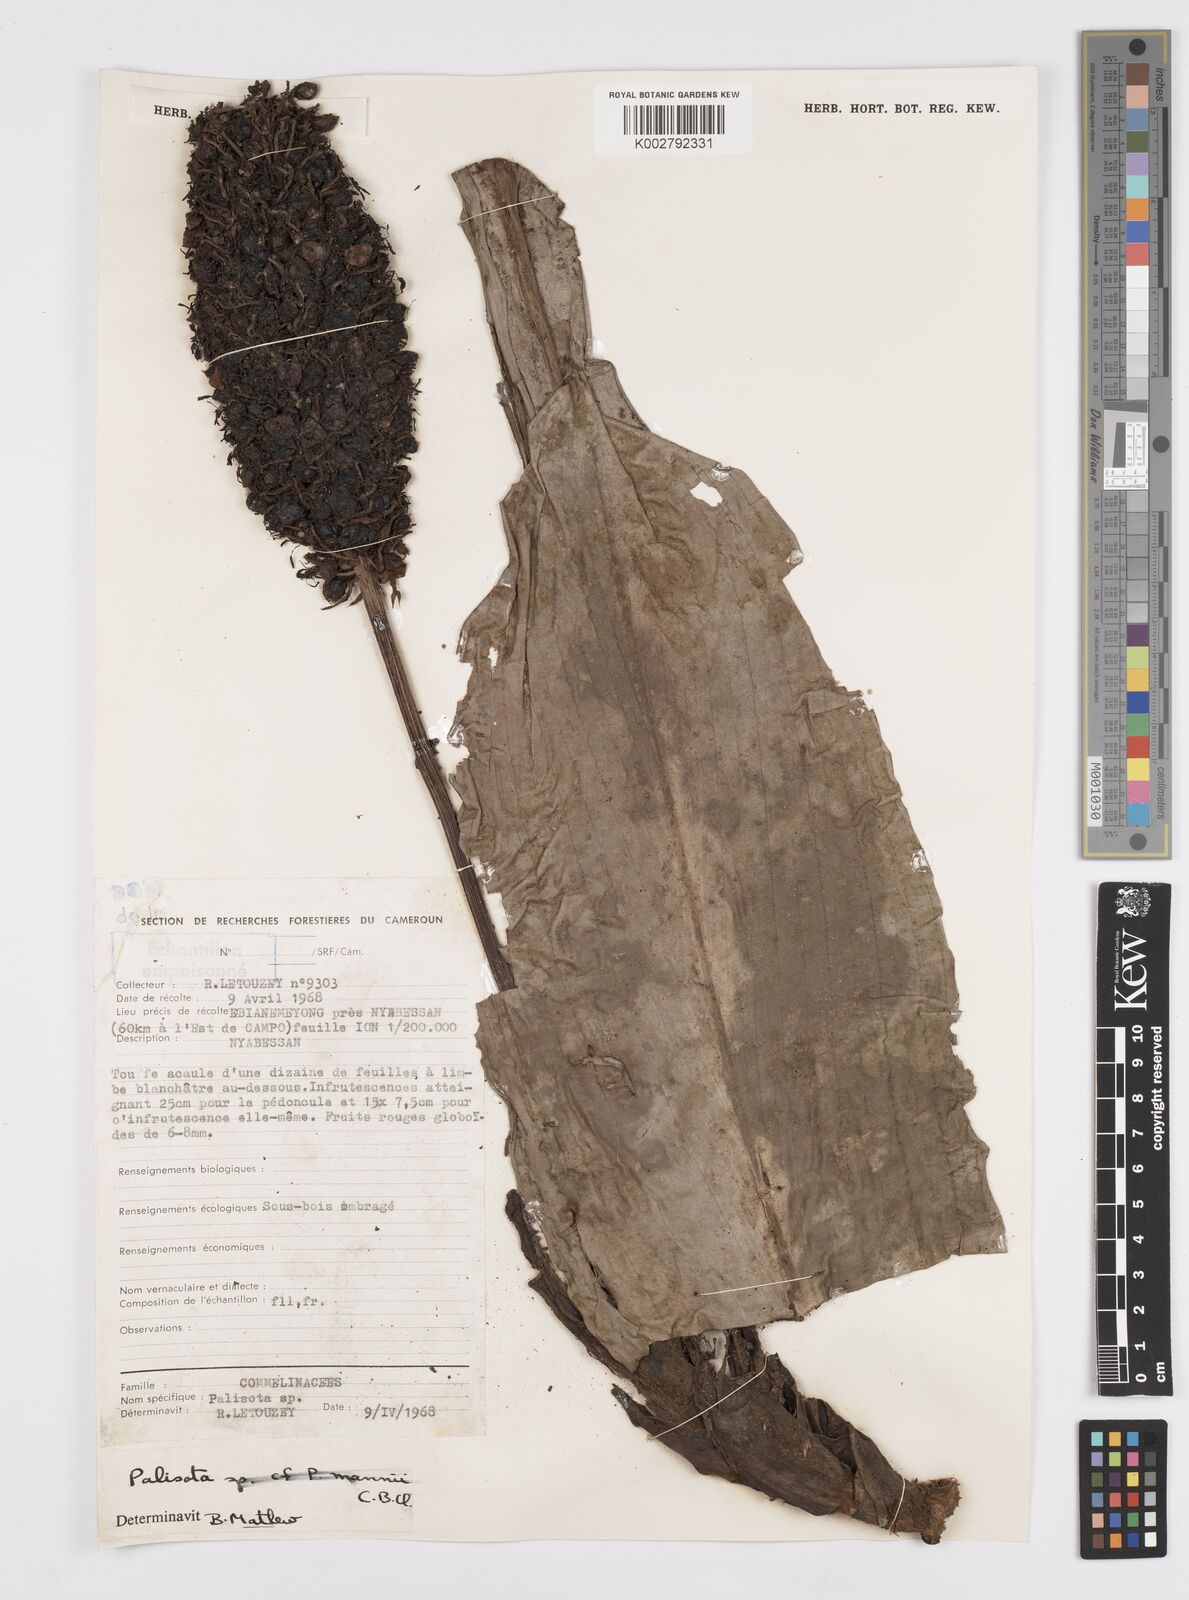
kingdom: Plantae
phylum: Tracheophyta
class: Liliopsida
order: Commelinales
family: Commelinaceae
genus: Palisota
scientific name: Palisota mannii
